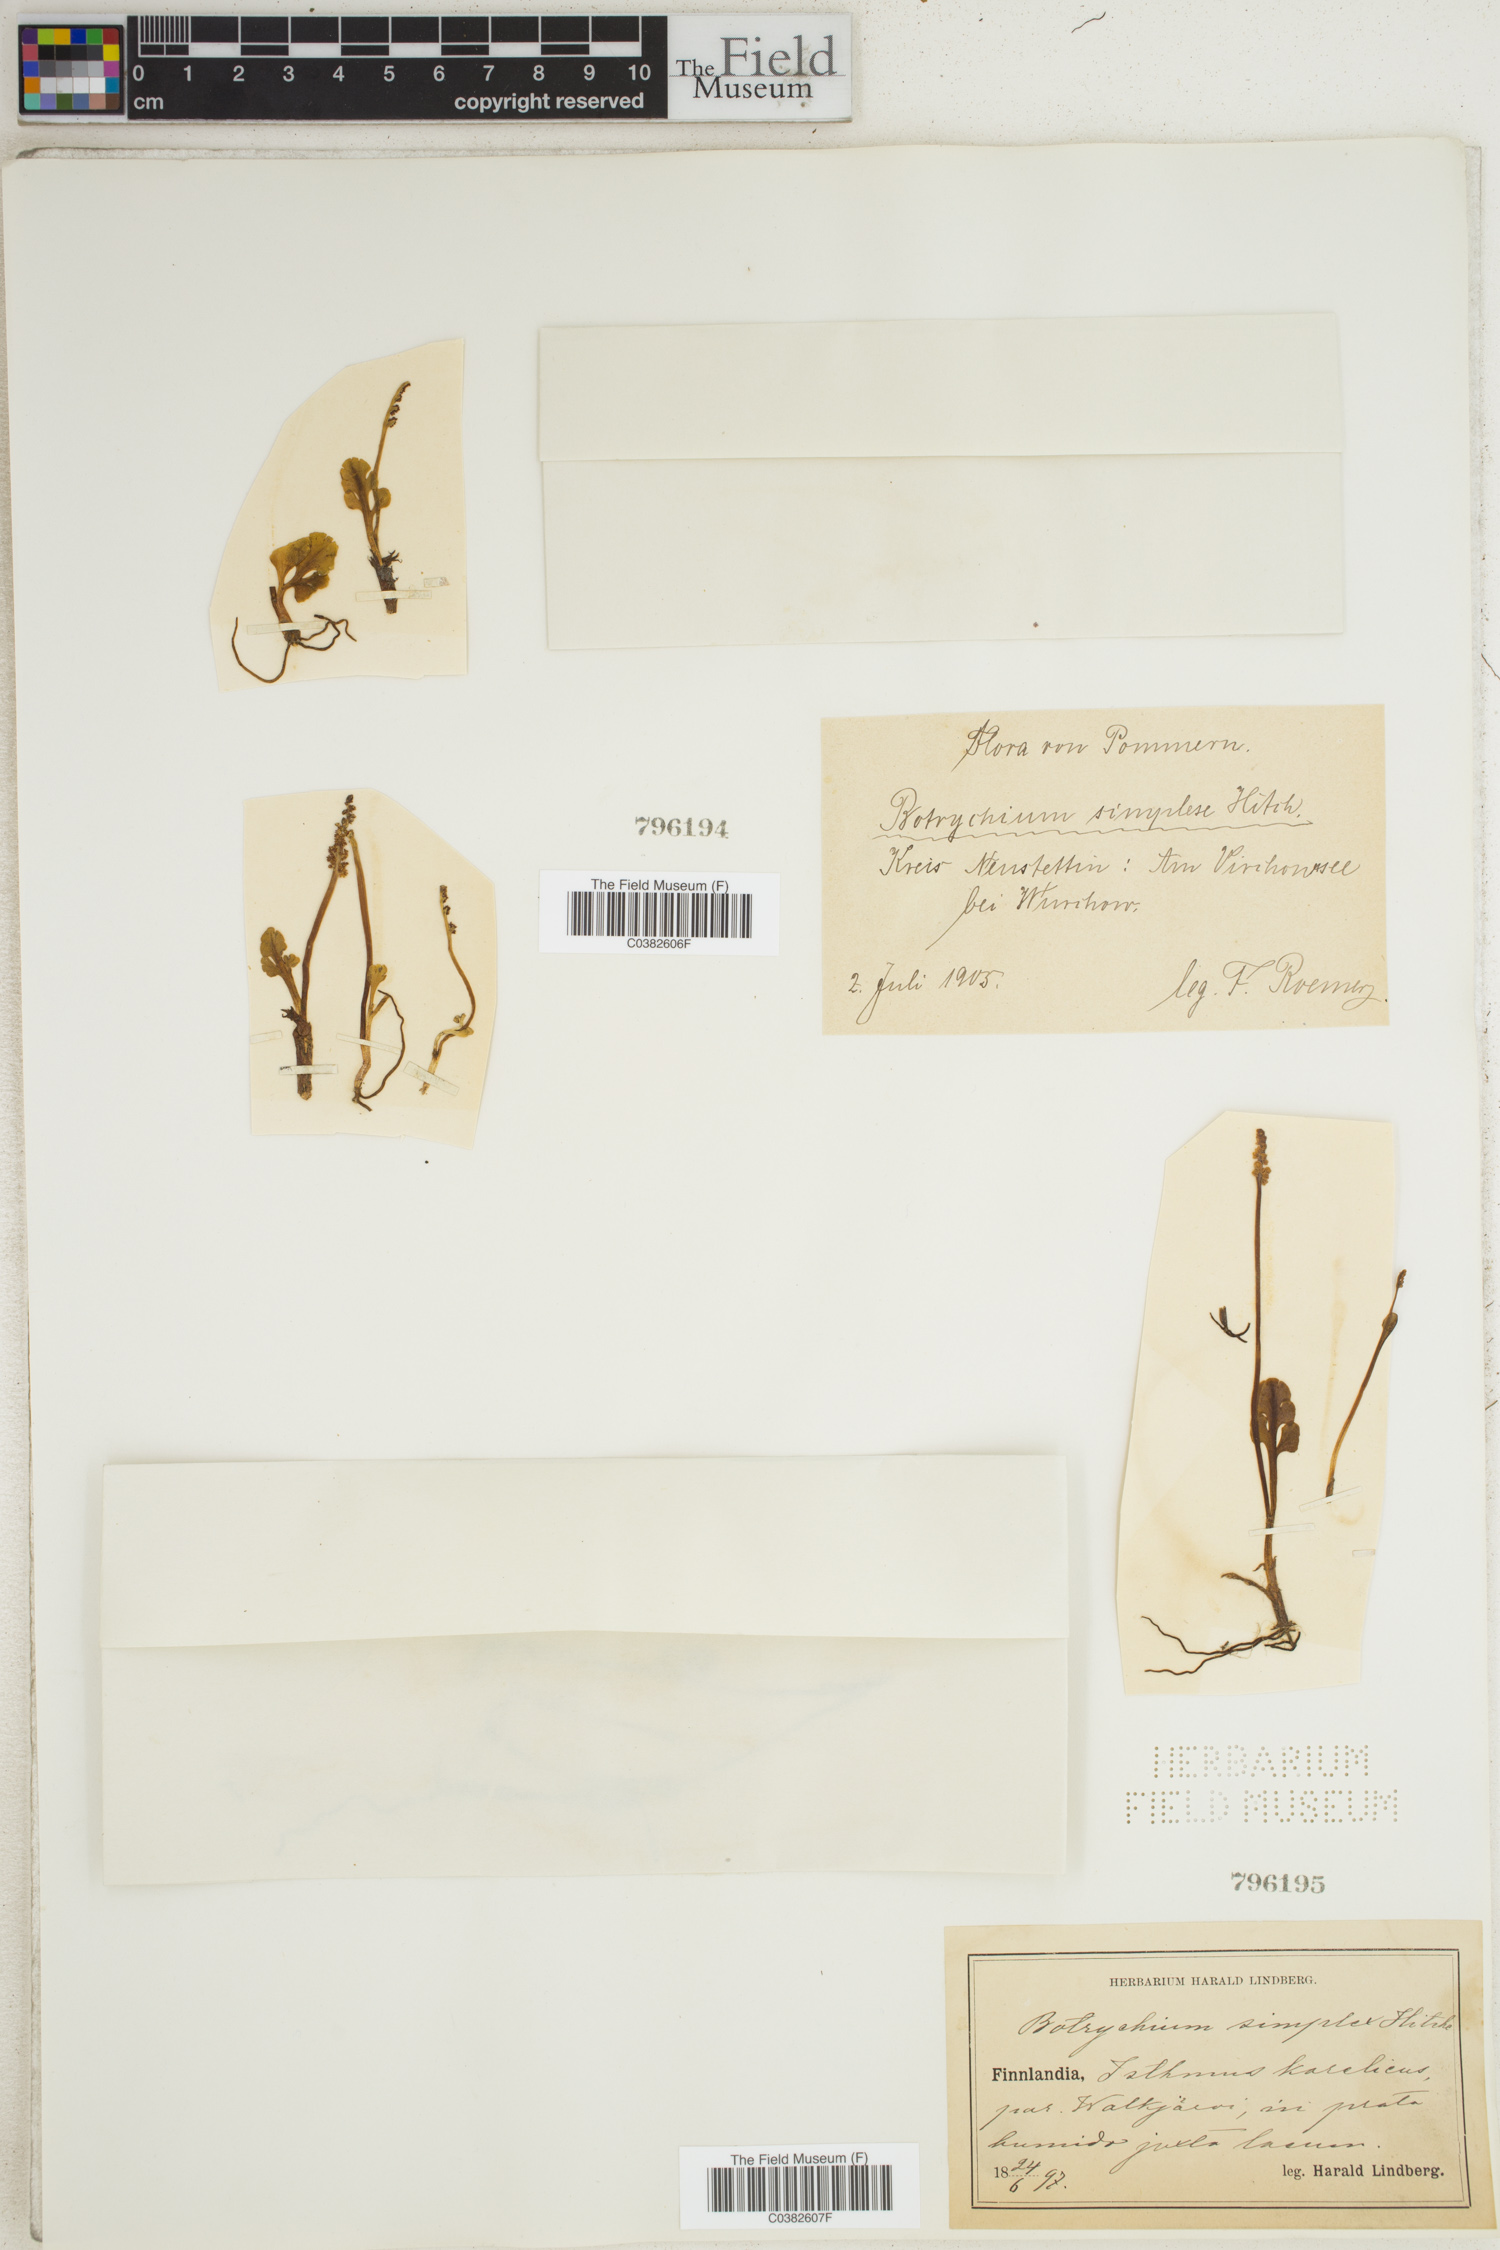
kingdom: Plantae
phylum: Tracheophyta
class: Polypodiopsida
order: Ophioglossales
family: Ophioglossaceae
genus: Botrychium
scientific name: Botrychium simplex
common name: Least moonwort
